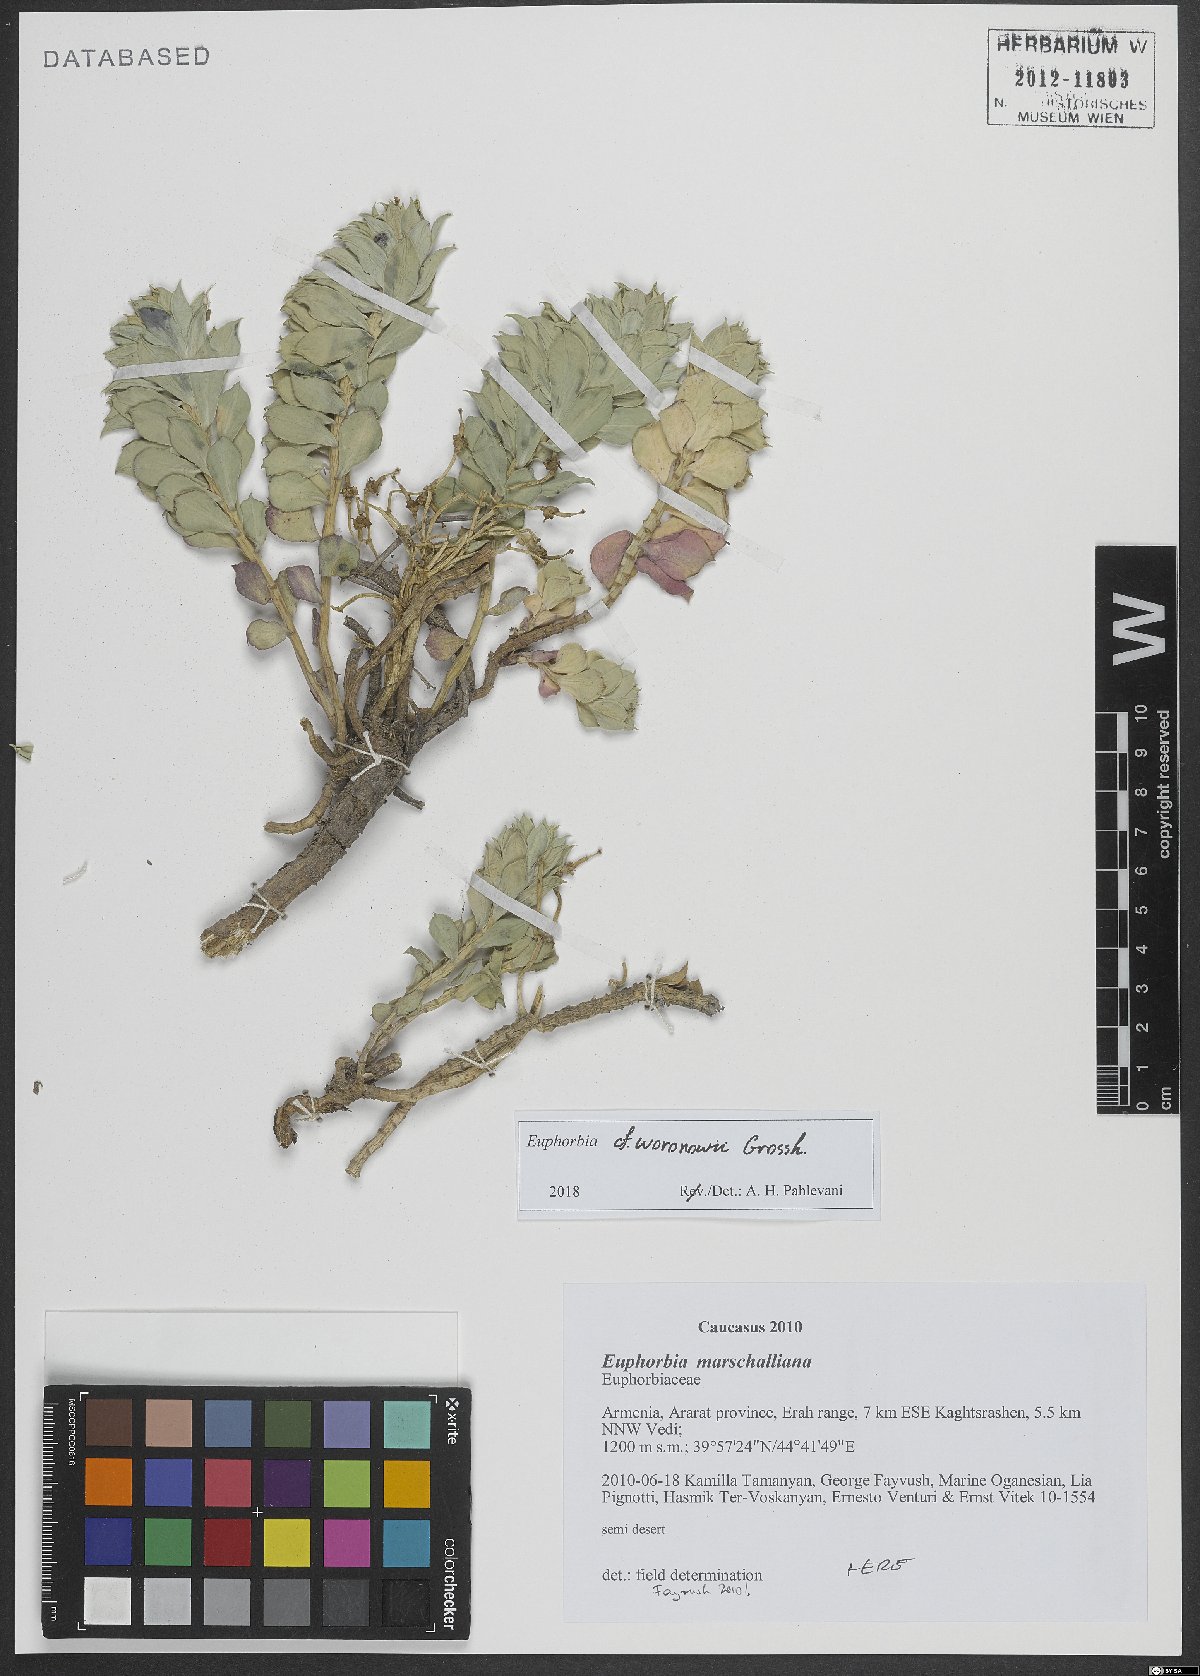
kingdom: Plantae
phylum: Tracheophyta
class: Magnoliopsida
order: Malpighiales
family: Euphorbiaceae
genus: Euphorbia
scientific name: Euphorbia marschalliana
